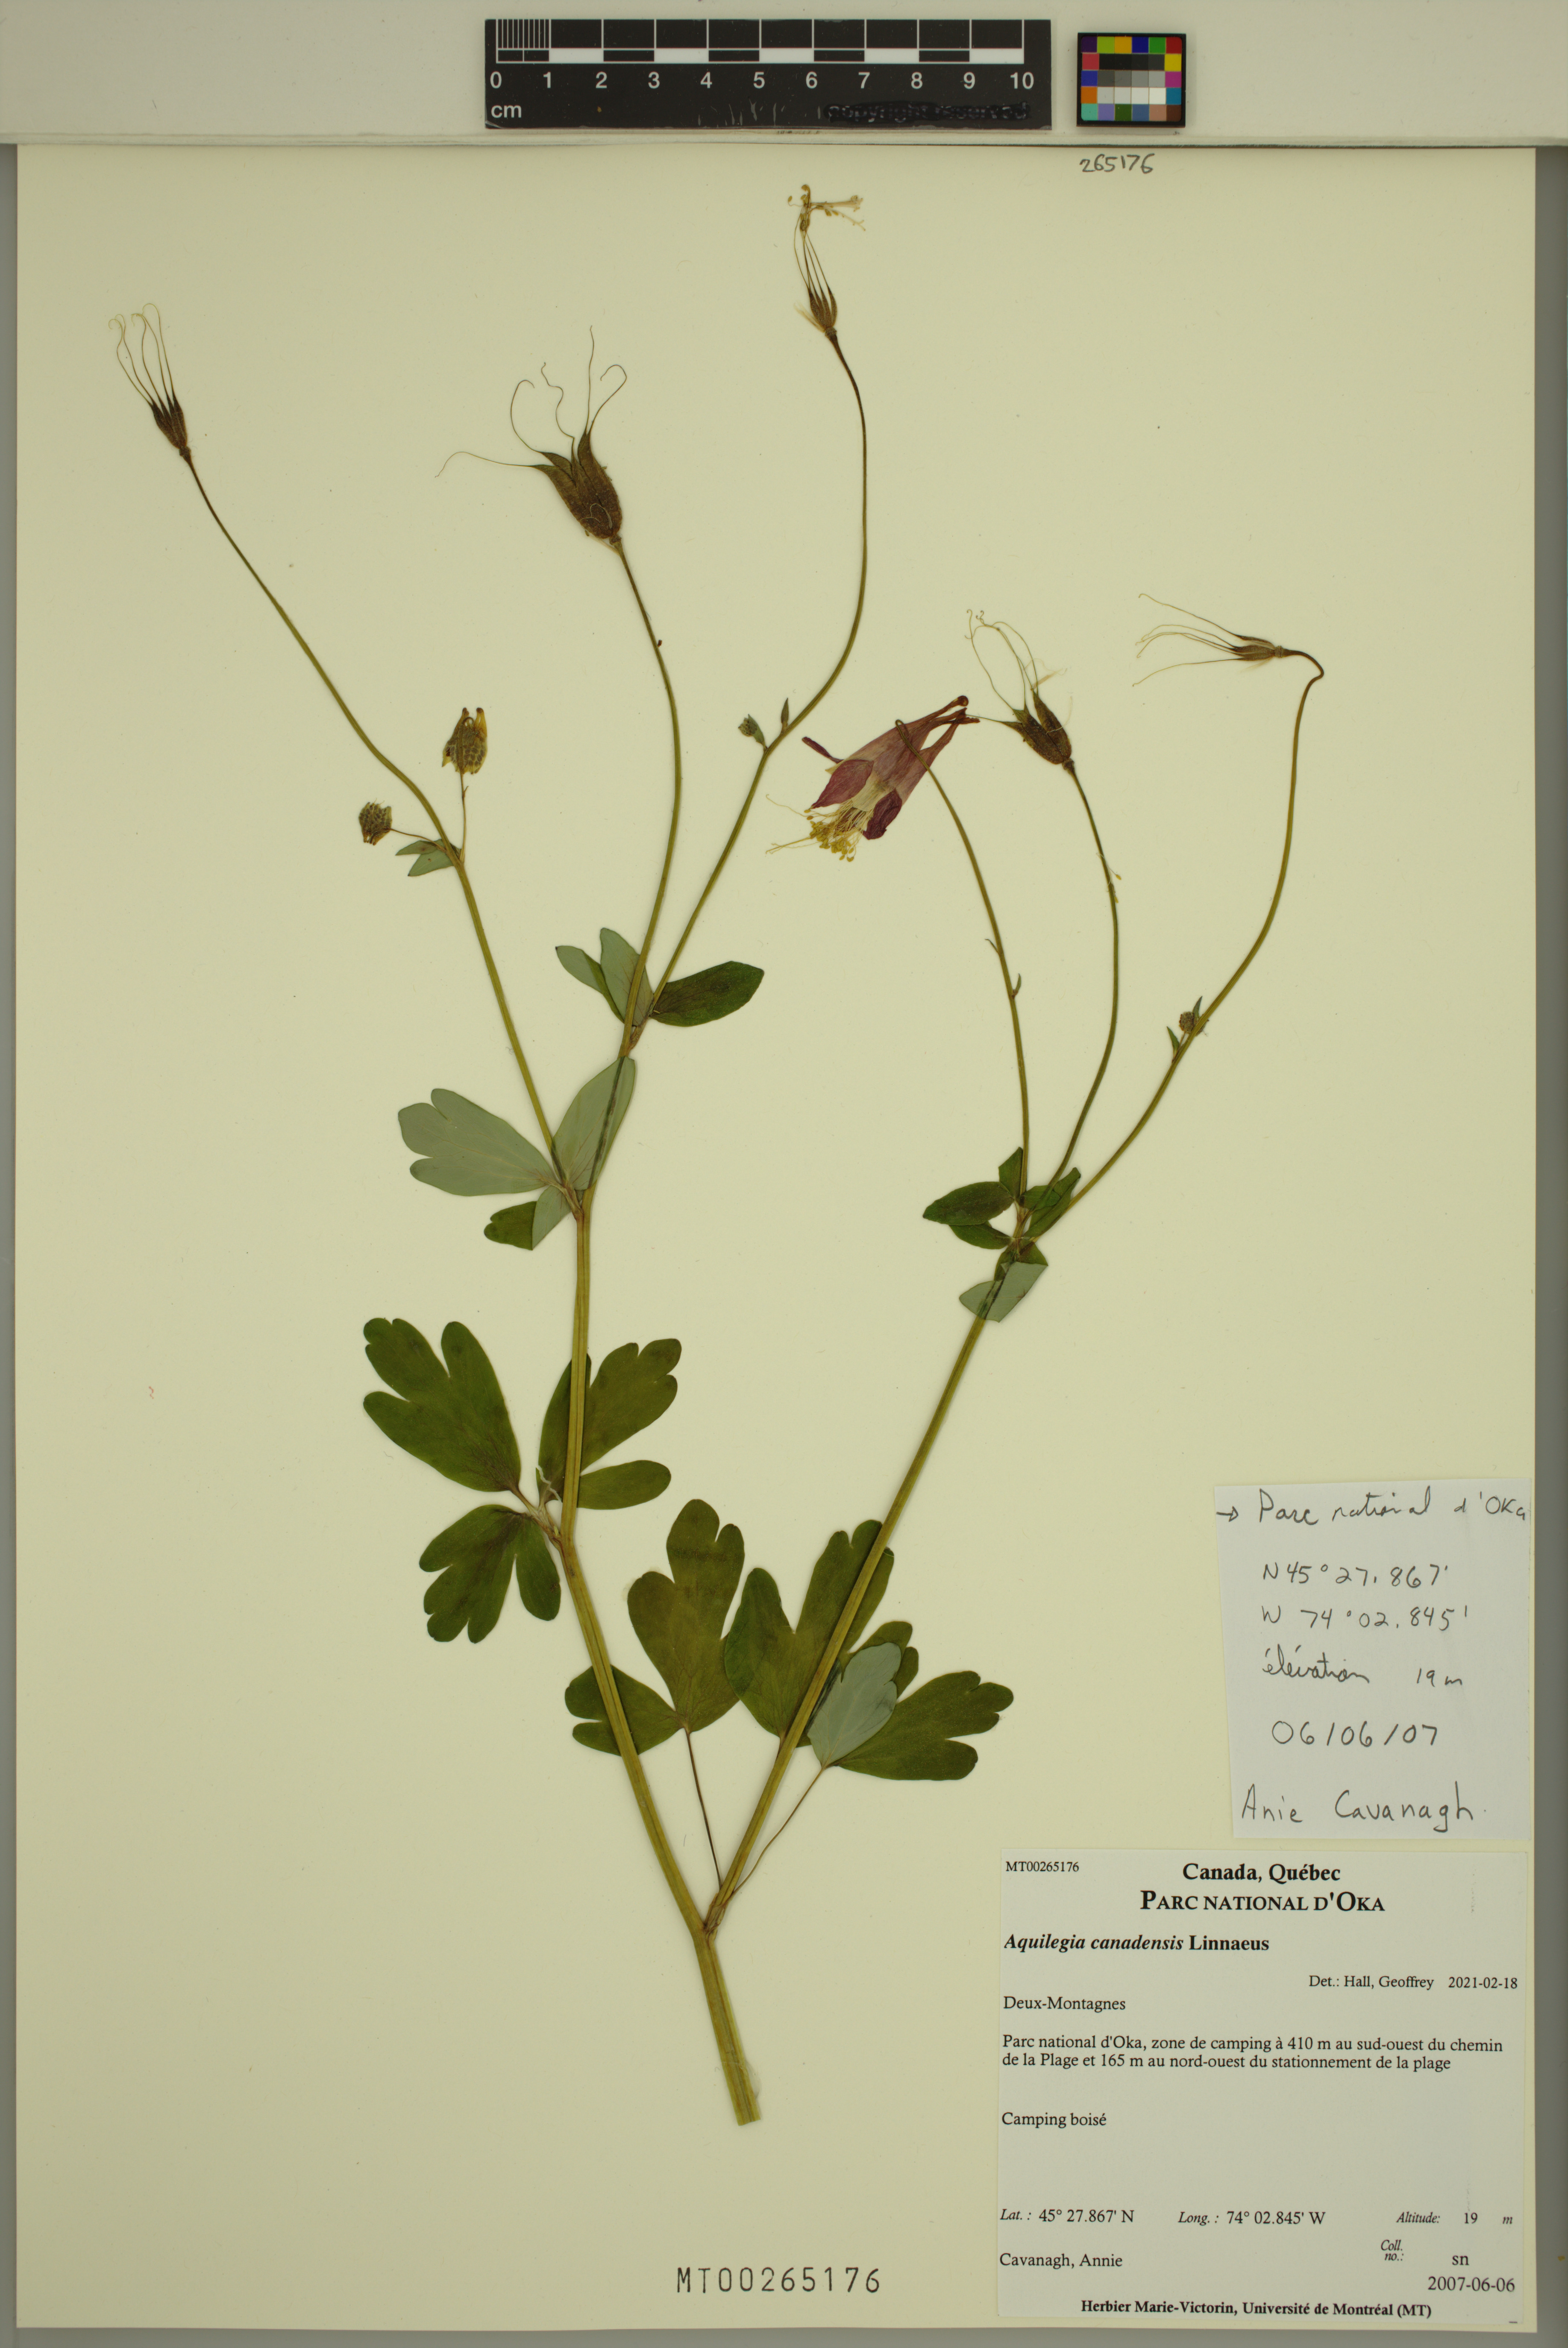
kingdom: Plantae
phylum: Tracheophyta
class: Magnoliopsida
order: Ranunculales
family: Ranunculaceae
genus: Aquilegia
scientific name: Aquilegia canadensis
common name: American columbine
